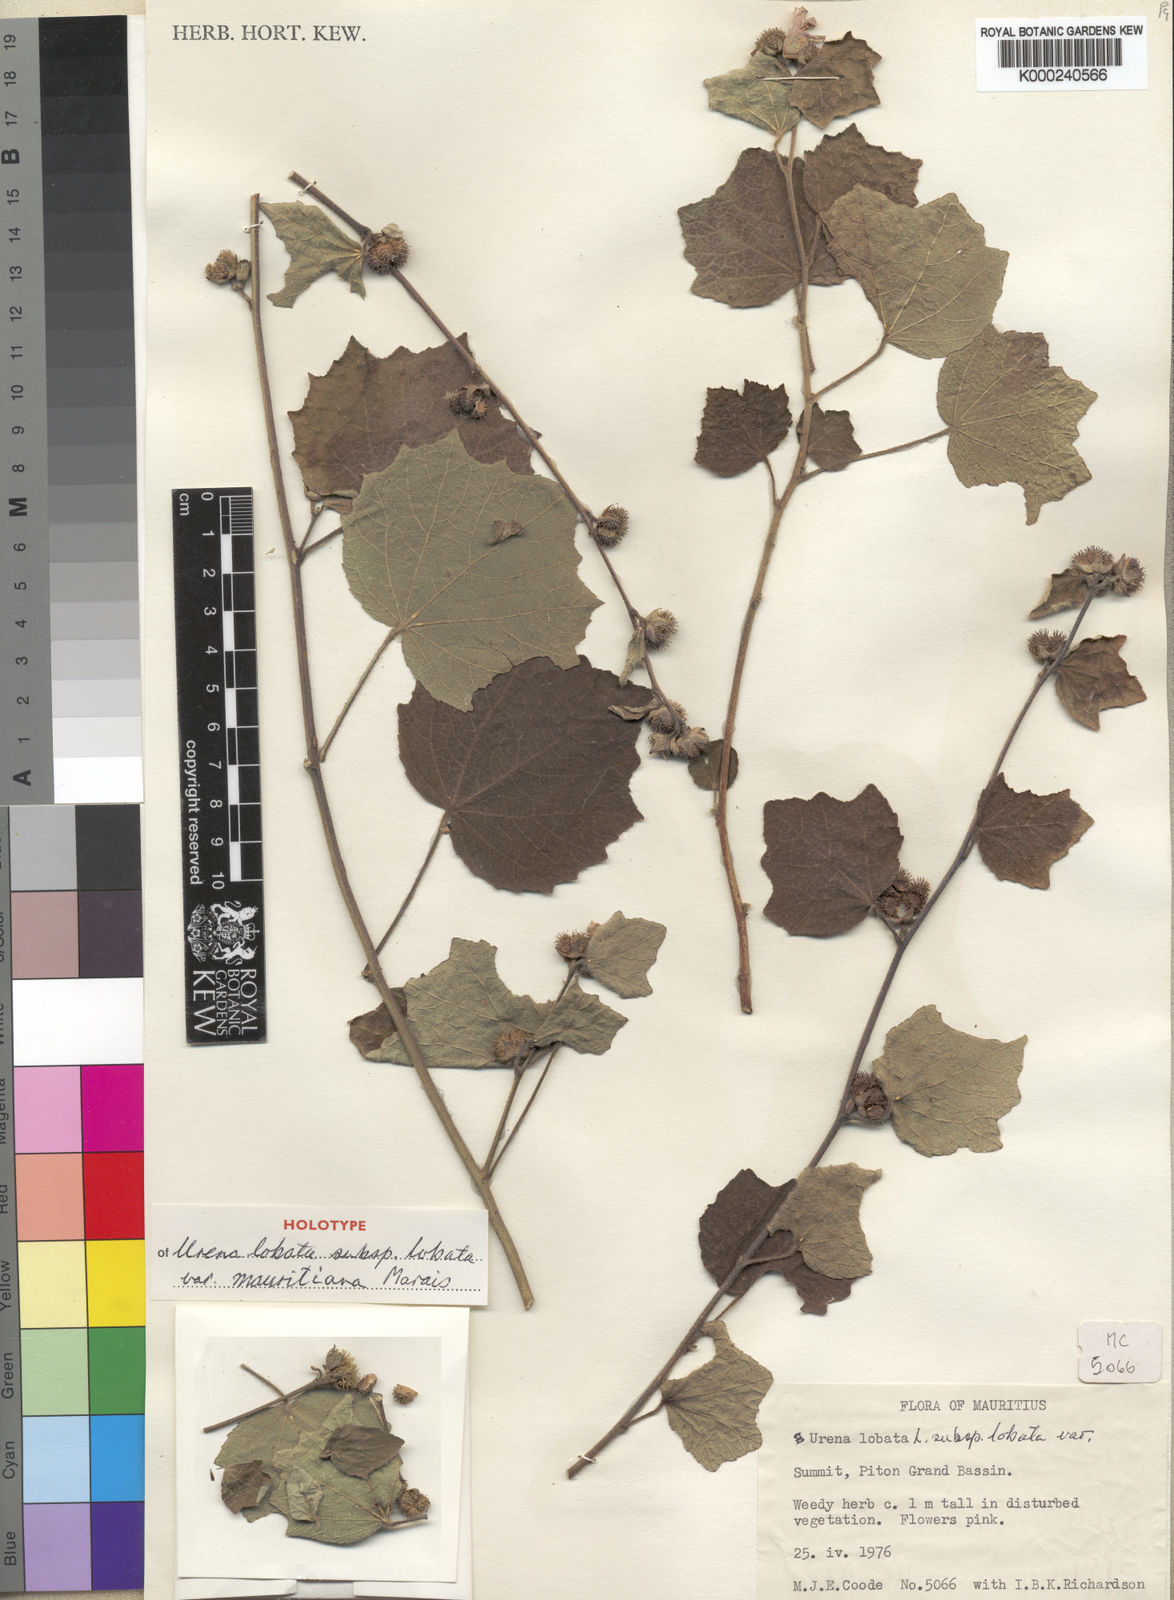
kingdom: Plantae
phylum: Tracheophyta
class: Magnoliopsida
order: Malvales
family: Malvaceae
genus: Urena
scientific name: Urena lobata
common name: Caesarweed
